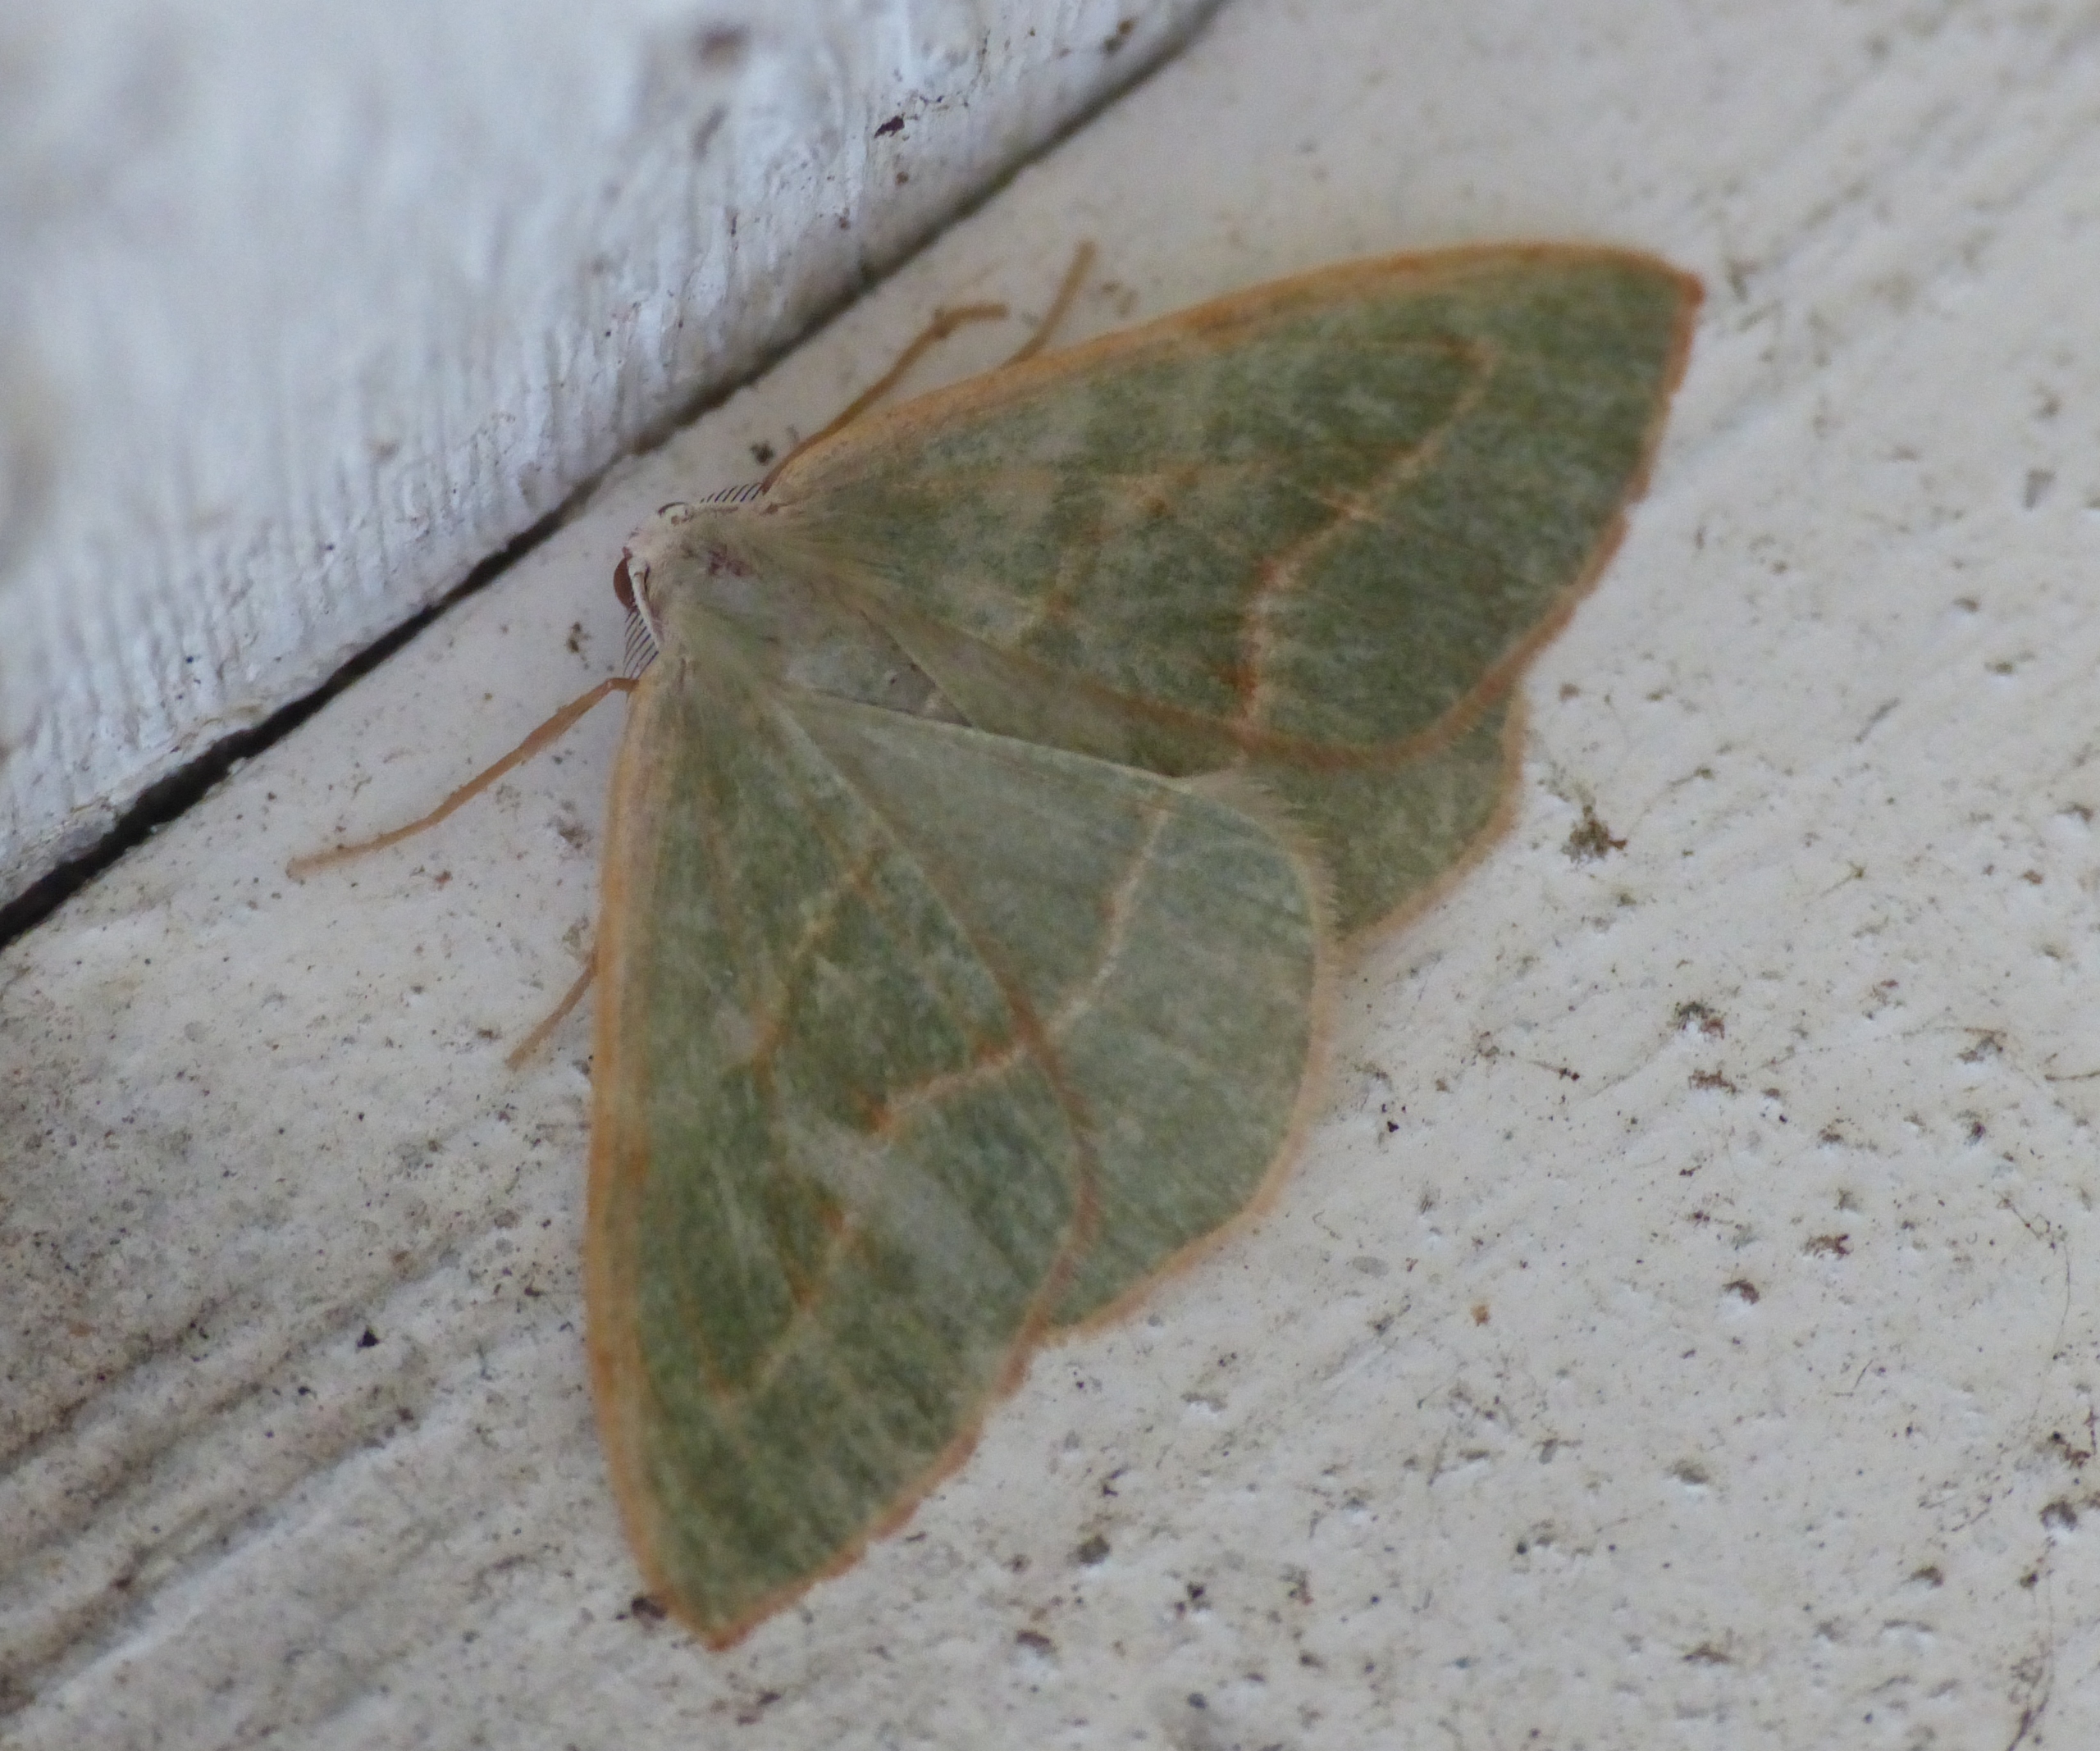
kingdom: Animalia
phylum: Arthropoda
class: Insecta
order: Lepidoptera
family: Geometridae
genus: Hylaea
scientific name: Hylaea fasciaria
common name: Nåleskovs-måler
